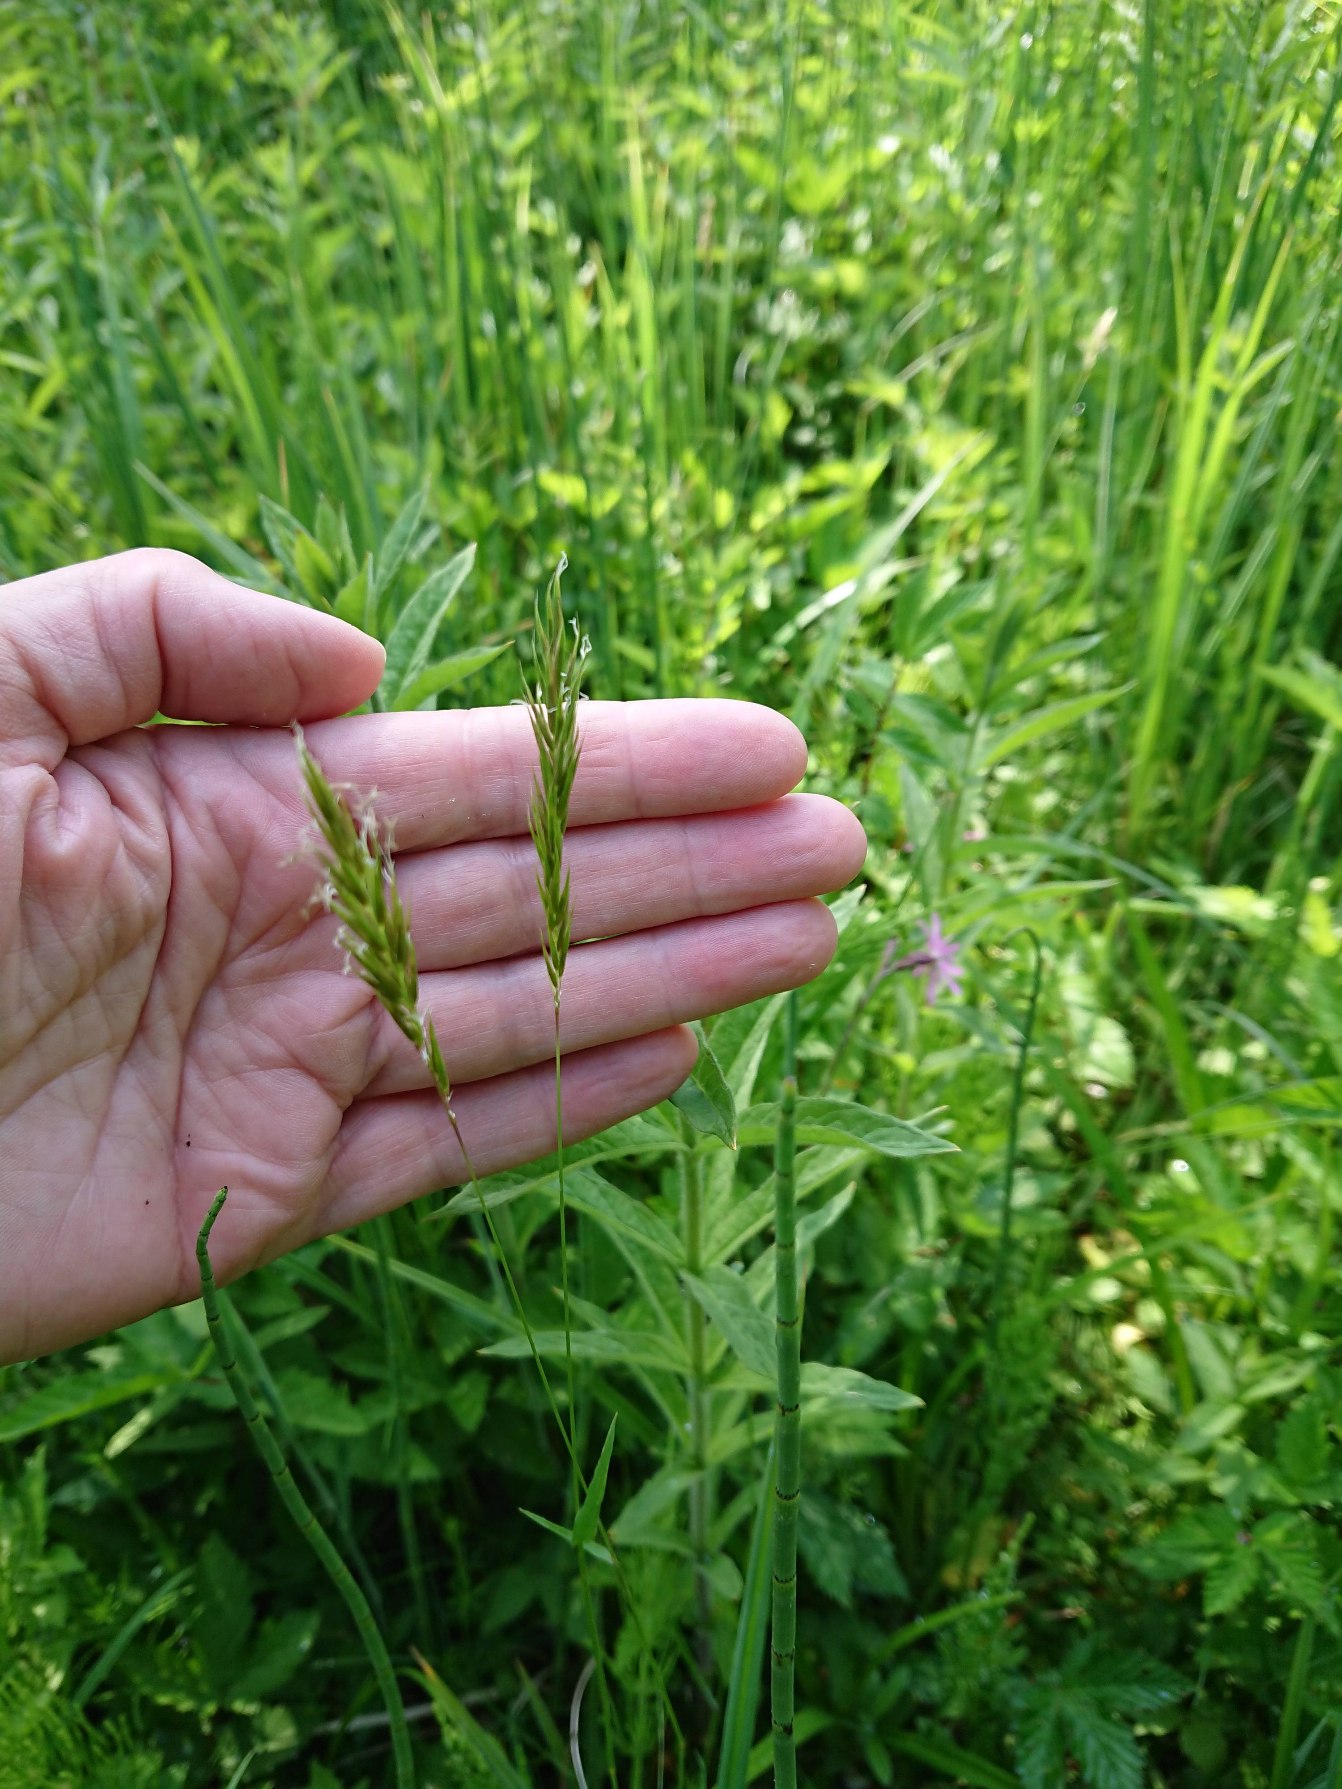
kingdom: Plantae
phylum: Tracheophyta
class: Liliopsida
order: Poales
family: Poaceae
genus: Anthoxanthum
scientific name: Anthoxanthum odoratum
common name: Vellugtende gulaks
